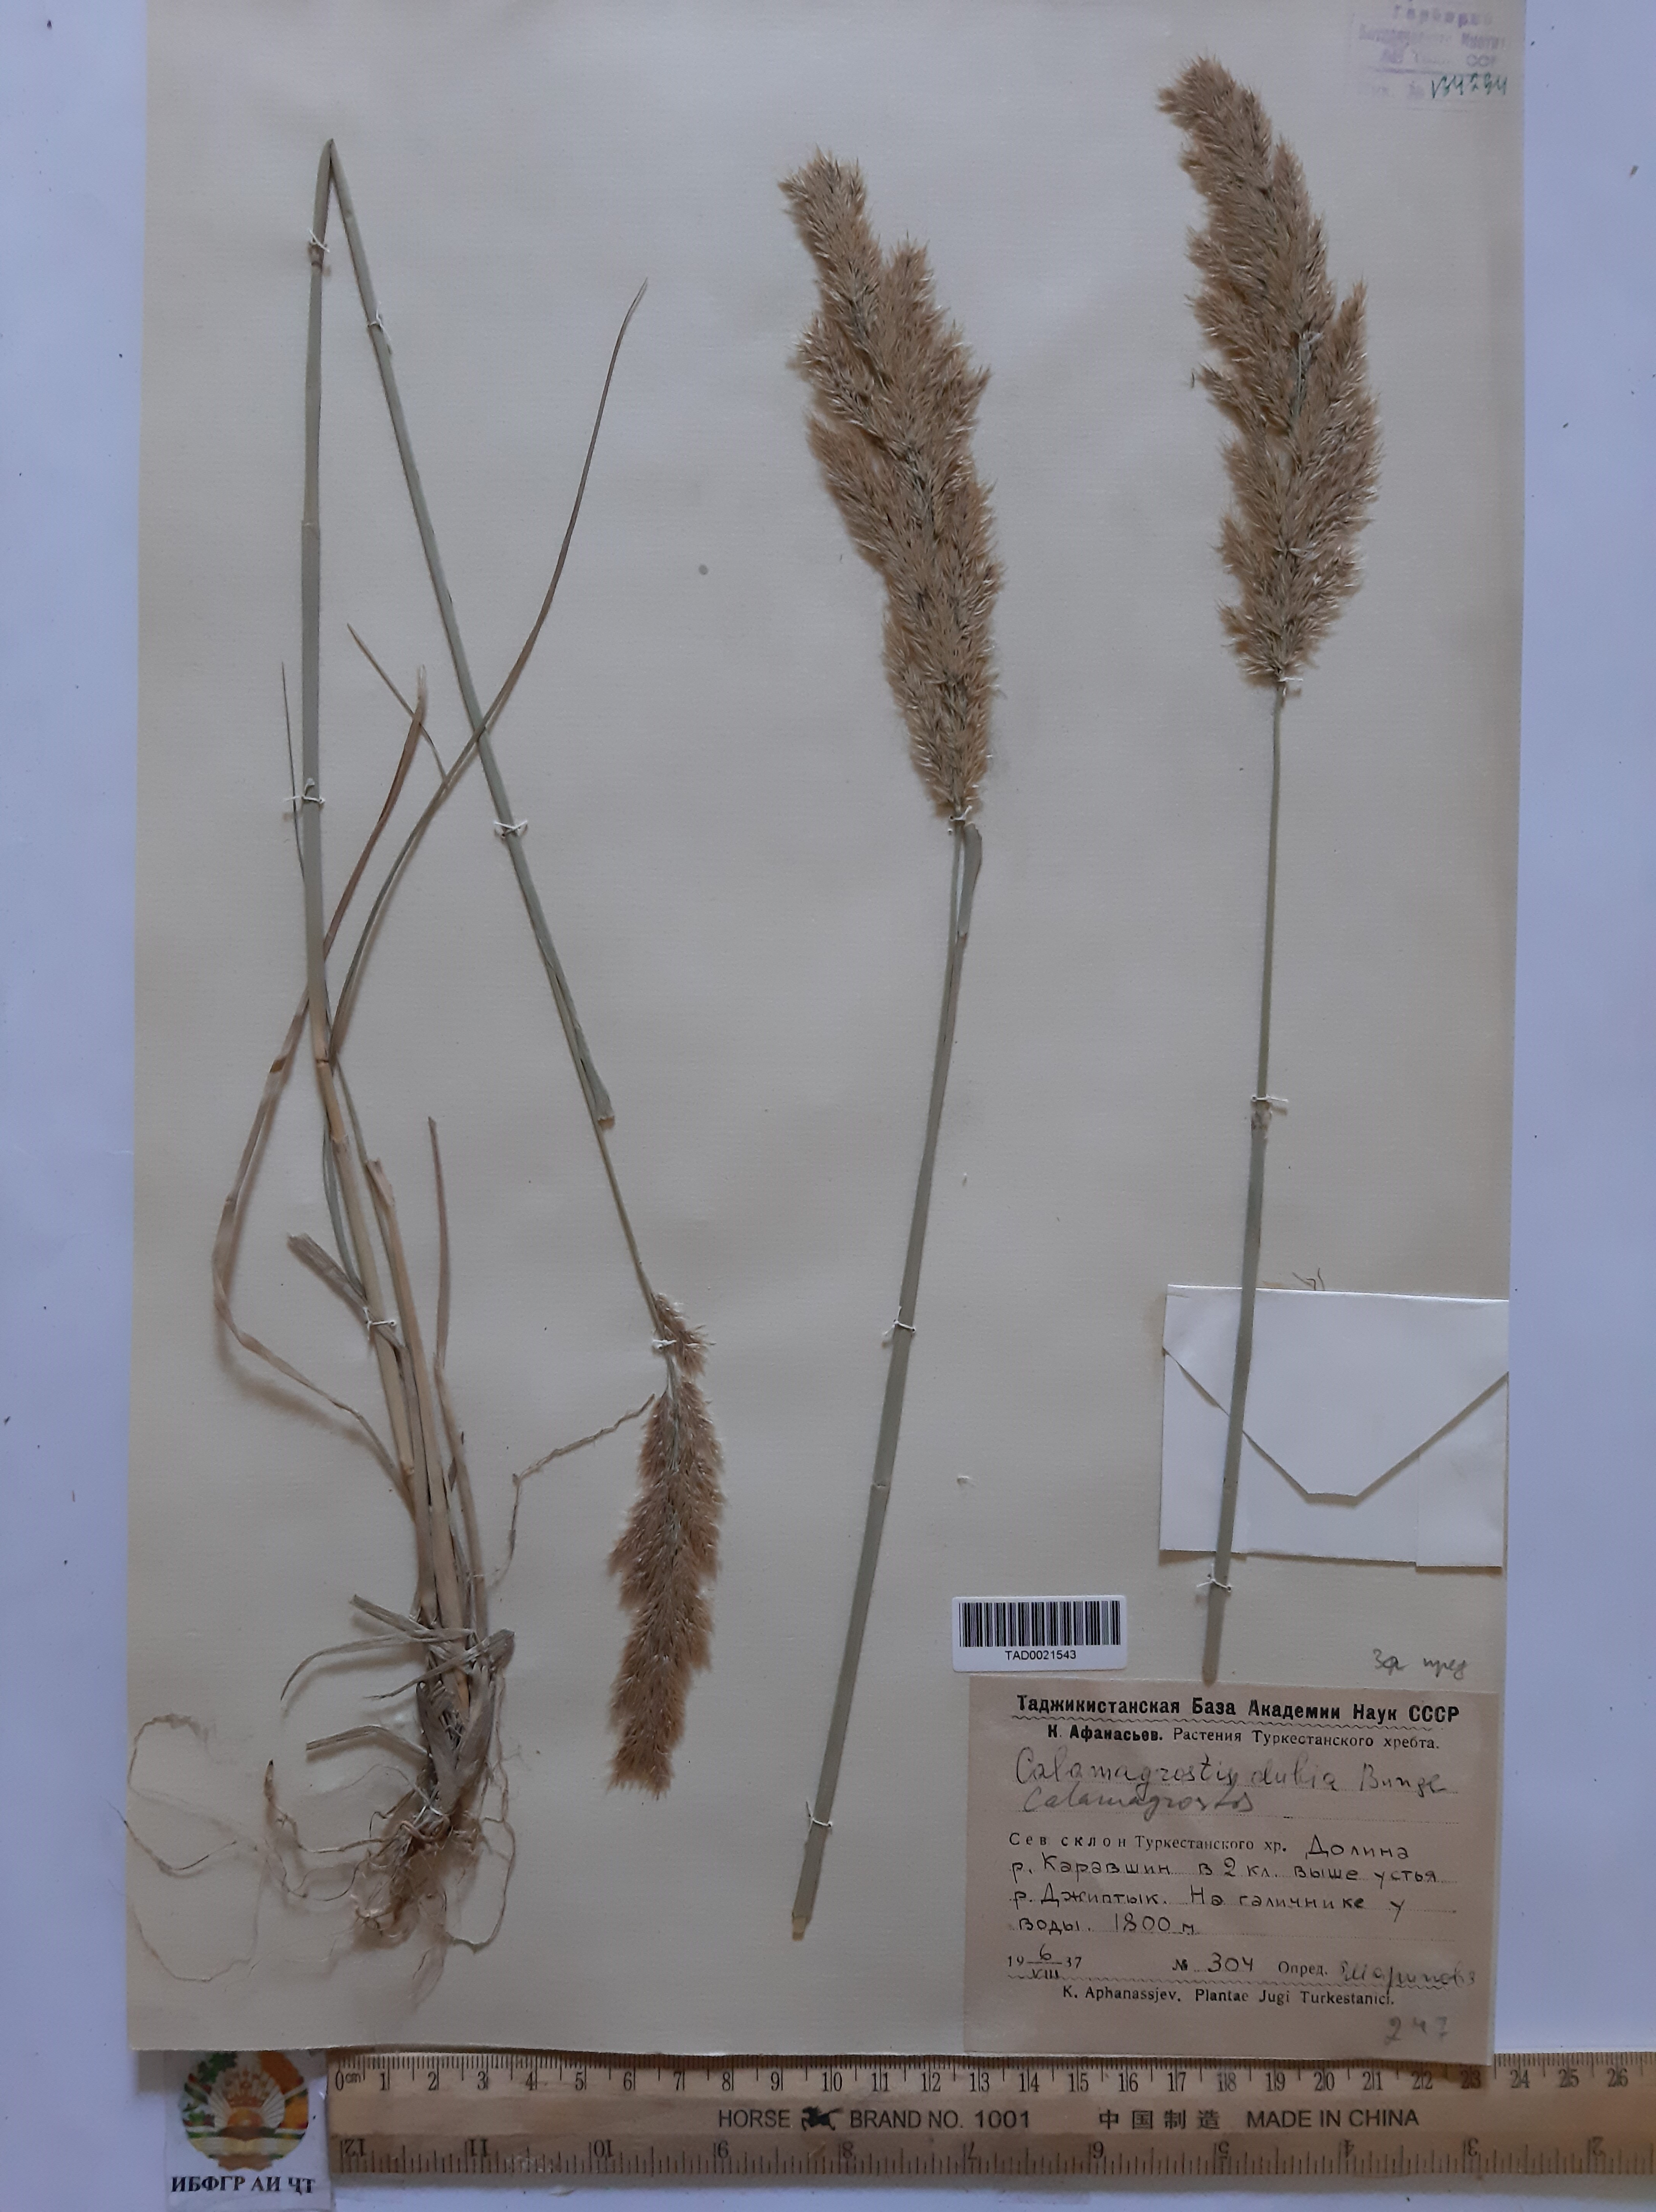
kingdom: Plantae
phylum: Tracheophyta
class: Liliopsida
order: Poales
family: Poaceae
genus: Calamagrostis
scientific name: Calamagrostis pseudophragmites
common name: Coastal small-reed
